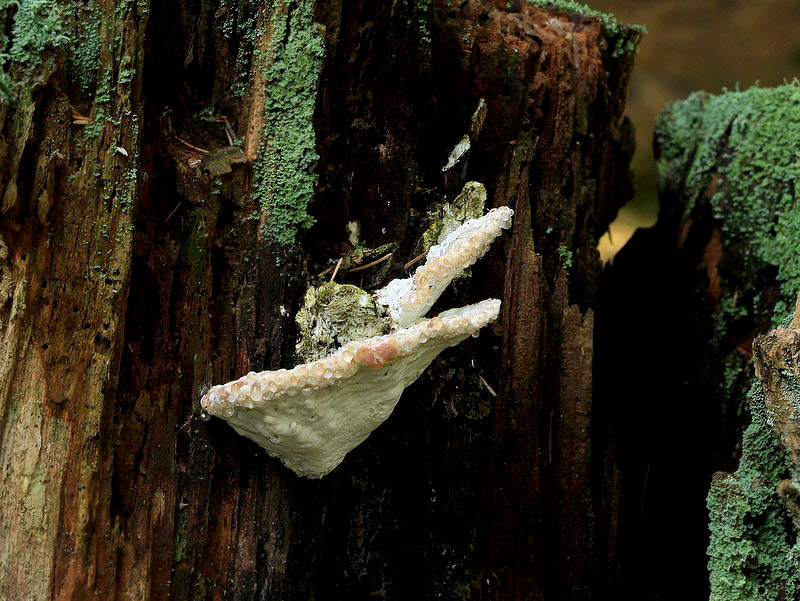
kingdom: Fungi
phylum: Basidiomycota
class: Agaricomycetes
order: Polyporales
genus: Calcipostia
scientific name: Calcipostia guttulata
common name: dråbe-kødporesvamp
